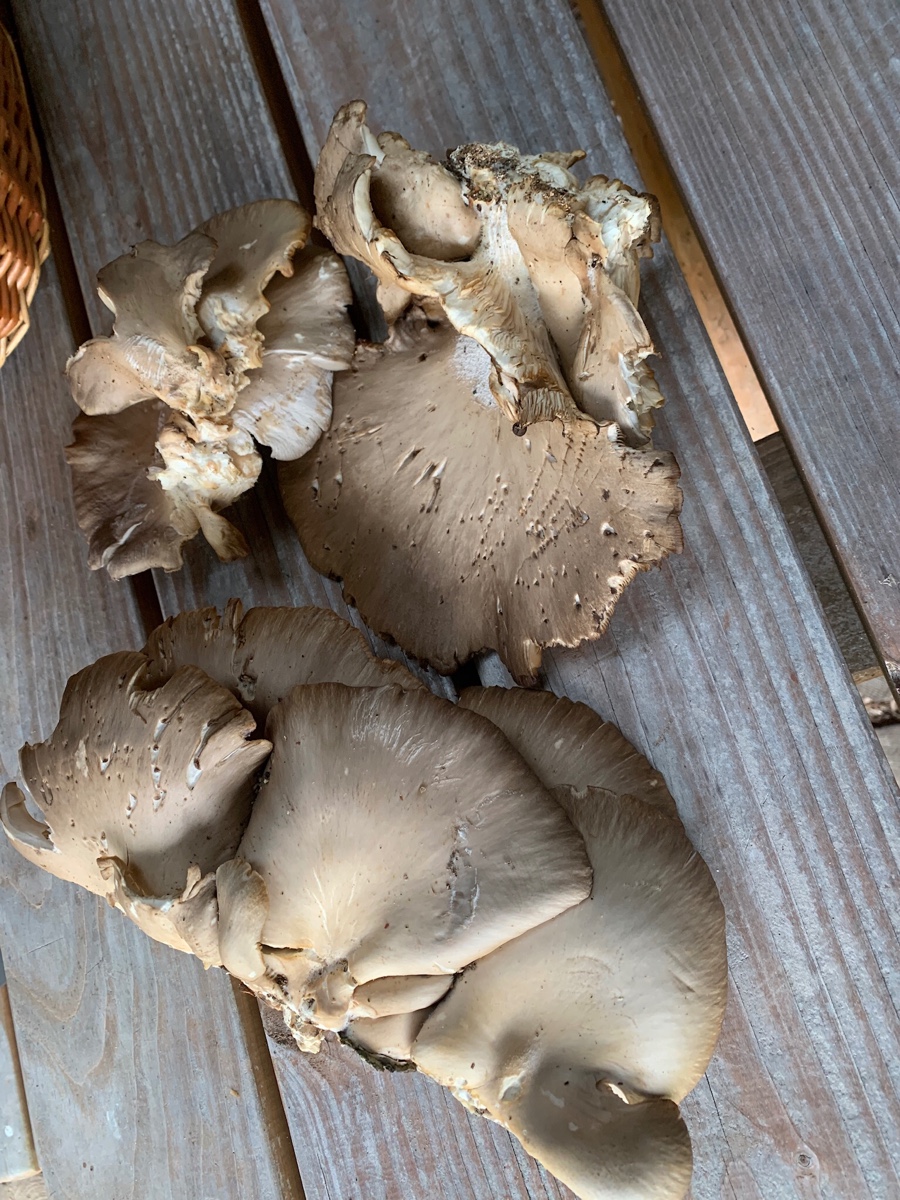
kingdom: Fungi
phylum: Basidiomycota
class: Agaricomycetes
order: Agaricales
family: Pleurotaceae
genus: Pleurotus
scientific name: Pleurotus ostreatus
